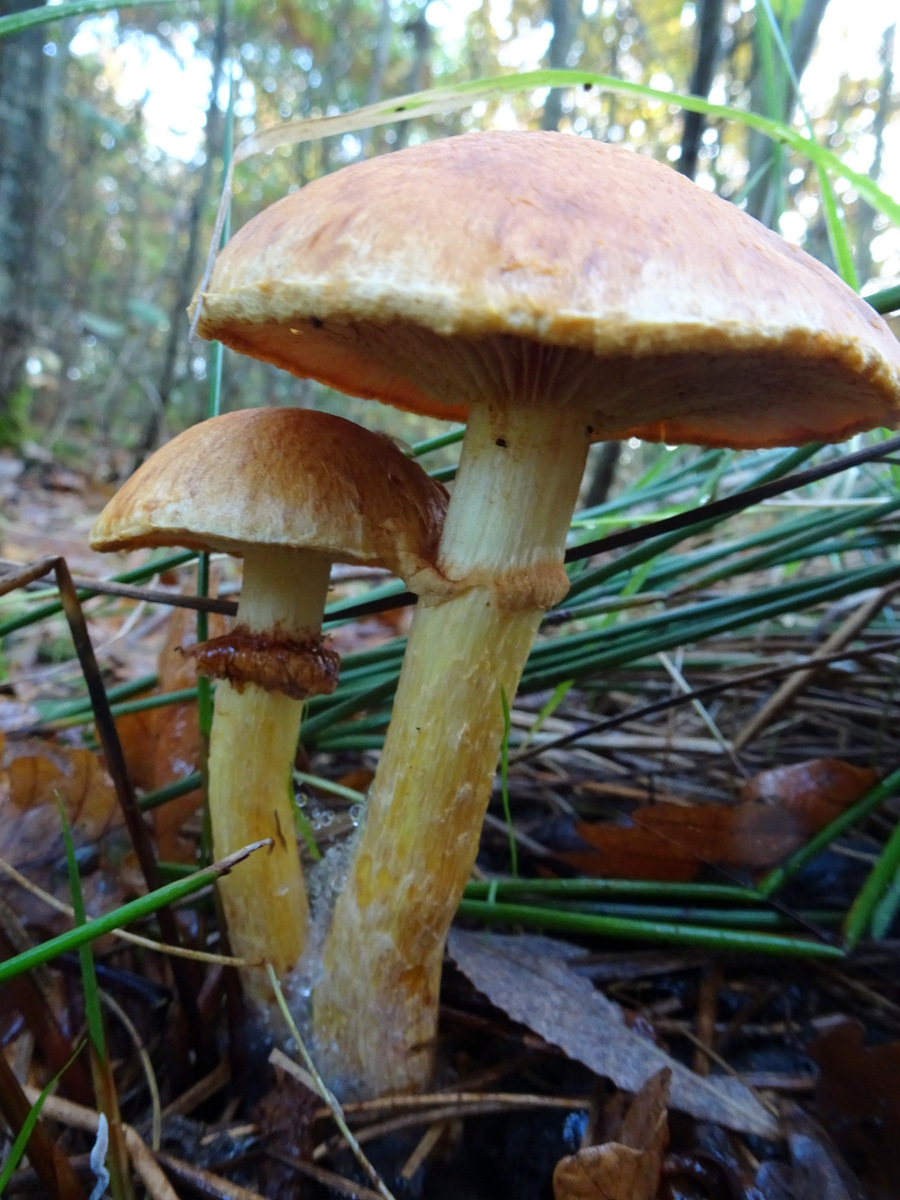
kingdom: Fungi
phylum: Basidiomycota
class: Agaricomycetes
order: Agaricales
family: Hymenogastraceae
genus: Gymnopilus
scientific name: Gymnopilus spectabilis
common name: fibret flammehat
